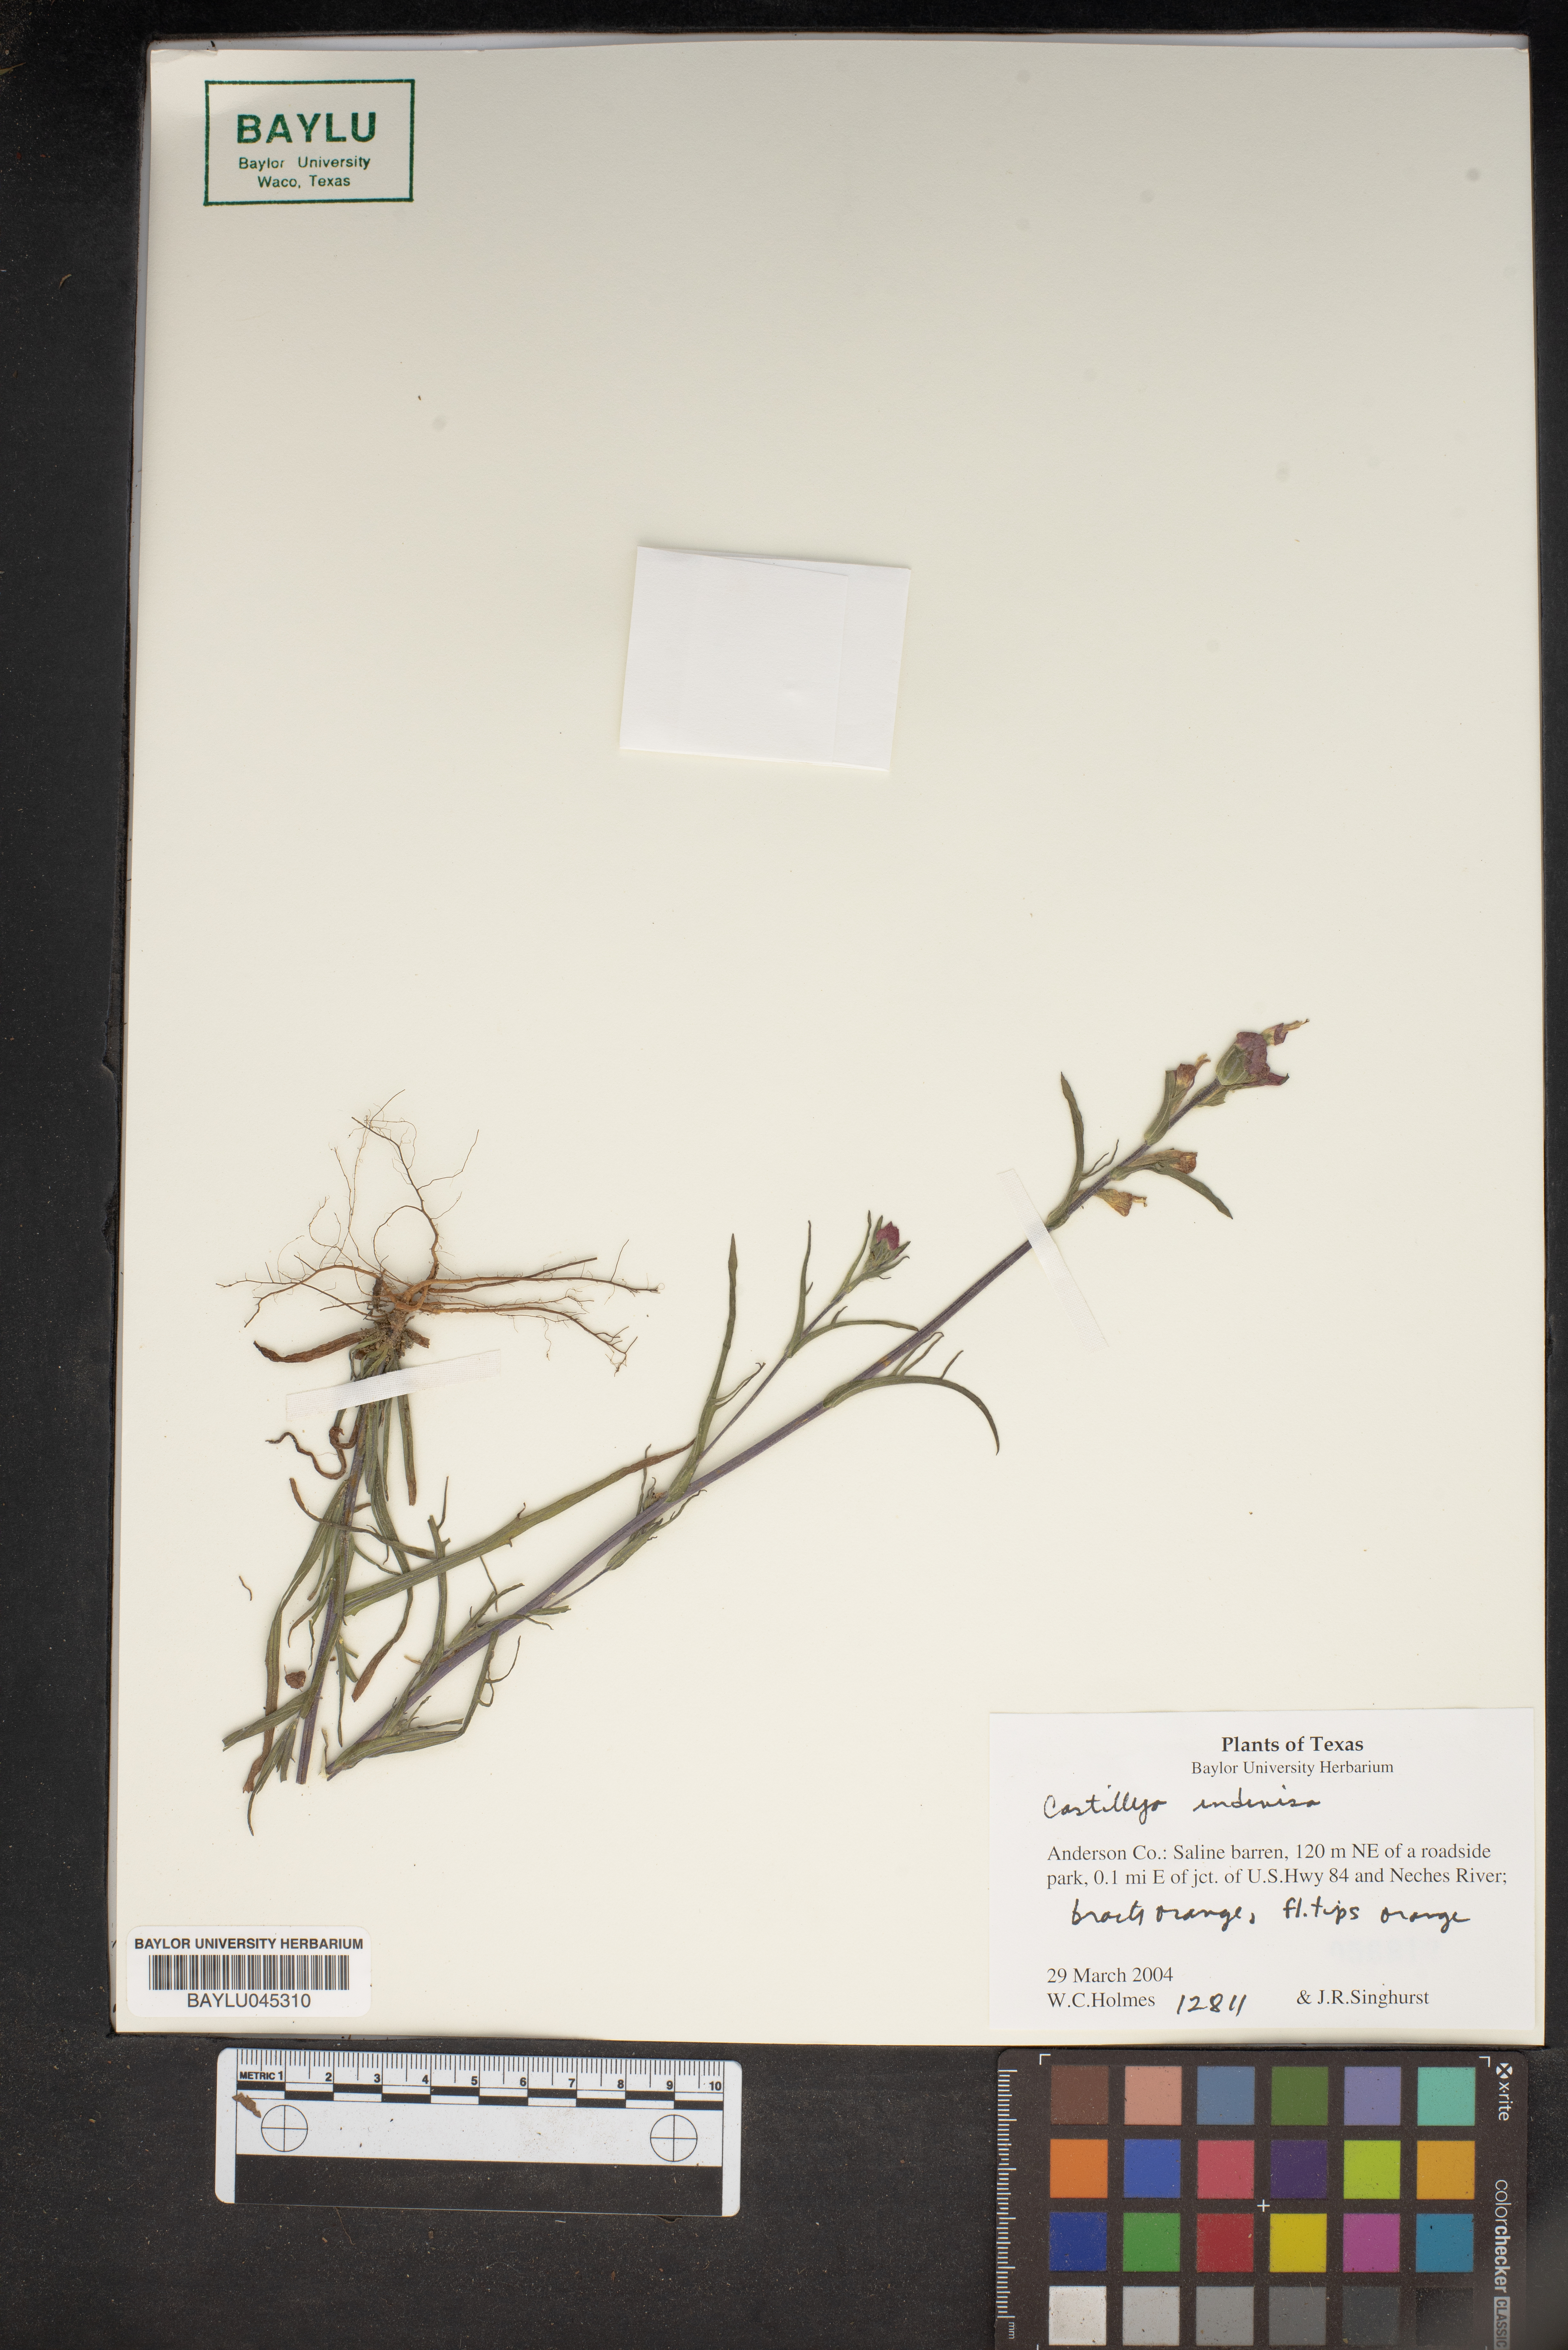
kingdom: Plantae
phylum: Tracheophyta
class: Magnoliopsida
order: Lamiales
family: Orobanchaceae
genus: Castilleja
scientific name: Castilleja indivisa
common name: Texas paintbrush
